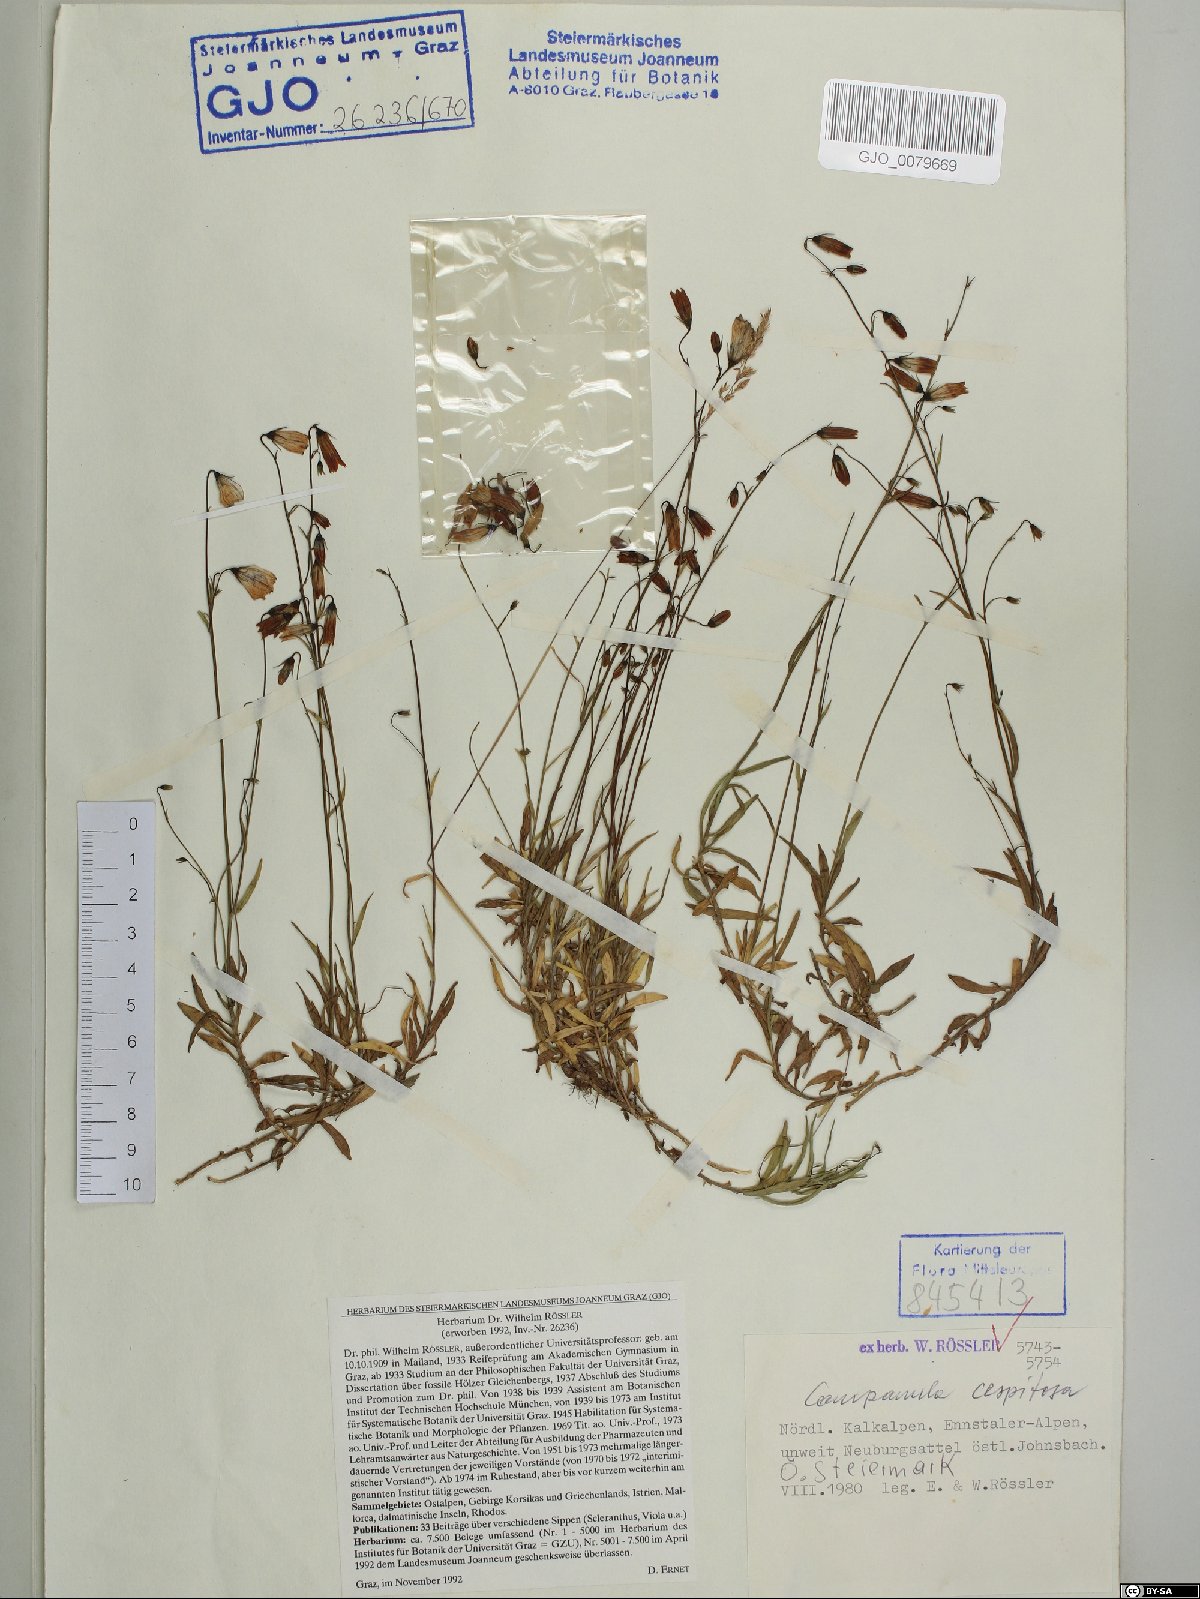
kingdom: Plantae
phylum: Tracheophyta
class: Magnoliopsida
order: Asterales
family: Campanulaceae
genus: Campanula
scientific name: Campanula cespitosa
